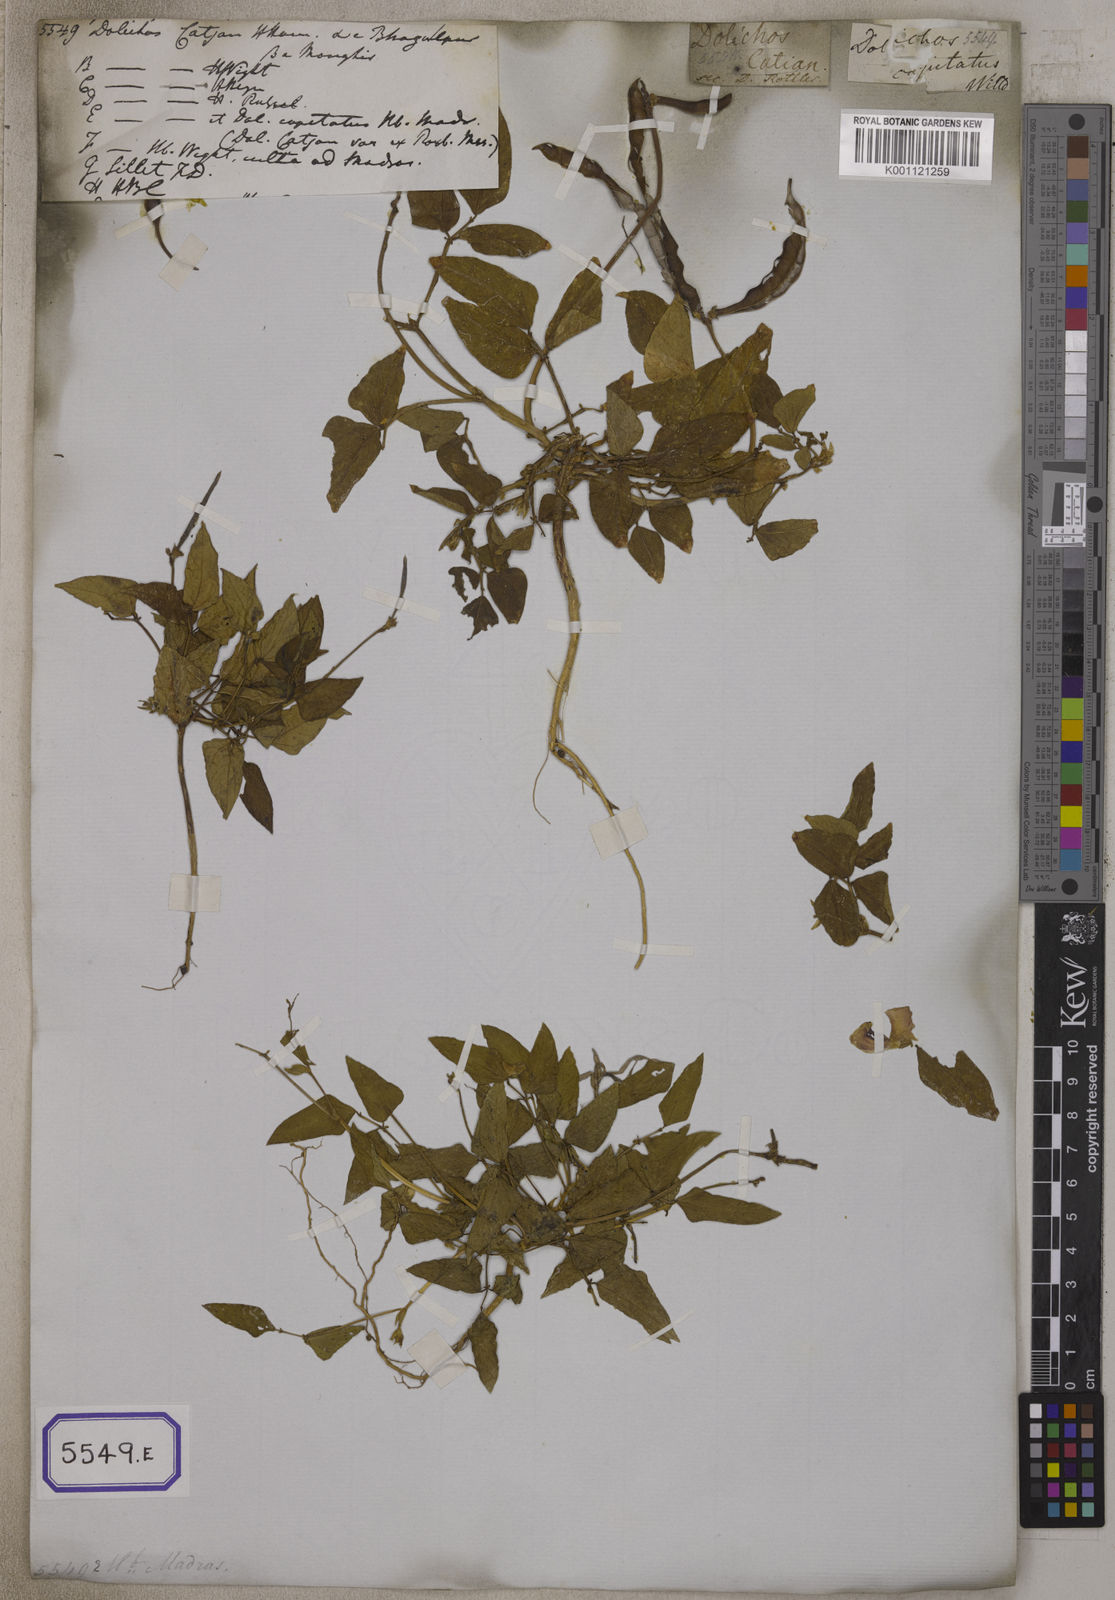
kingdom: Plantae
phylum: Tracheophyta
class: Magnoliopsida
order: Fabales
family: Fabaceae
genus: Vigna
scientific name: Vigna unguiculata
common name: Cowpea
